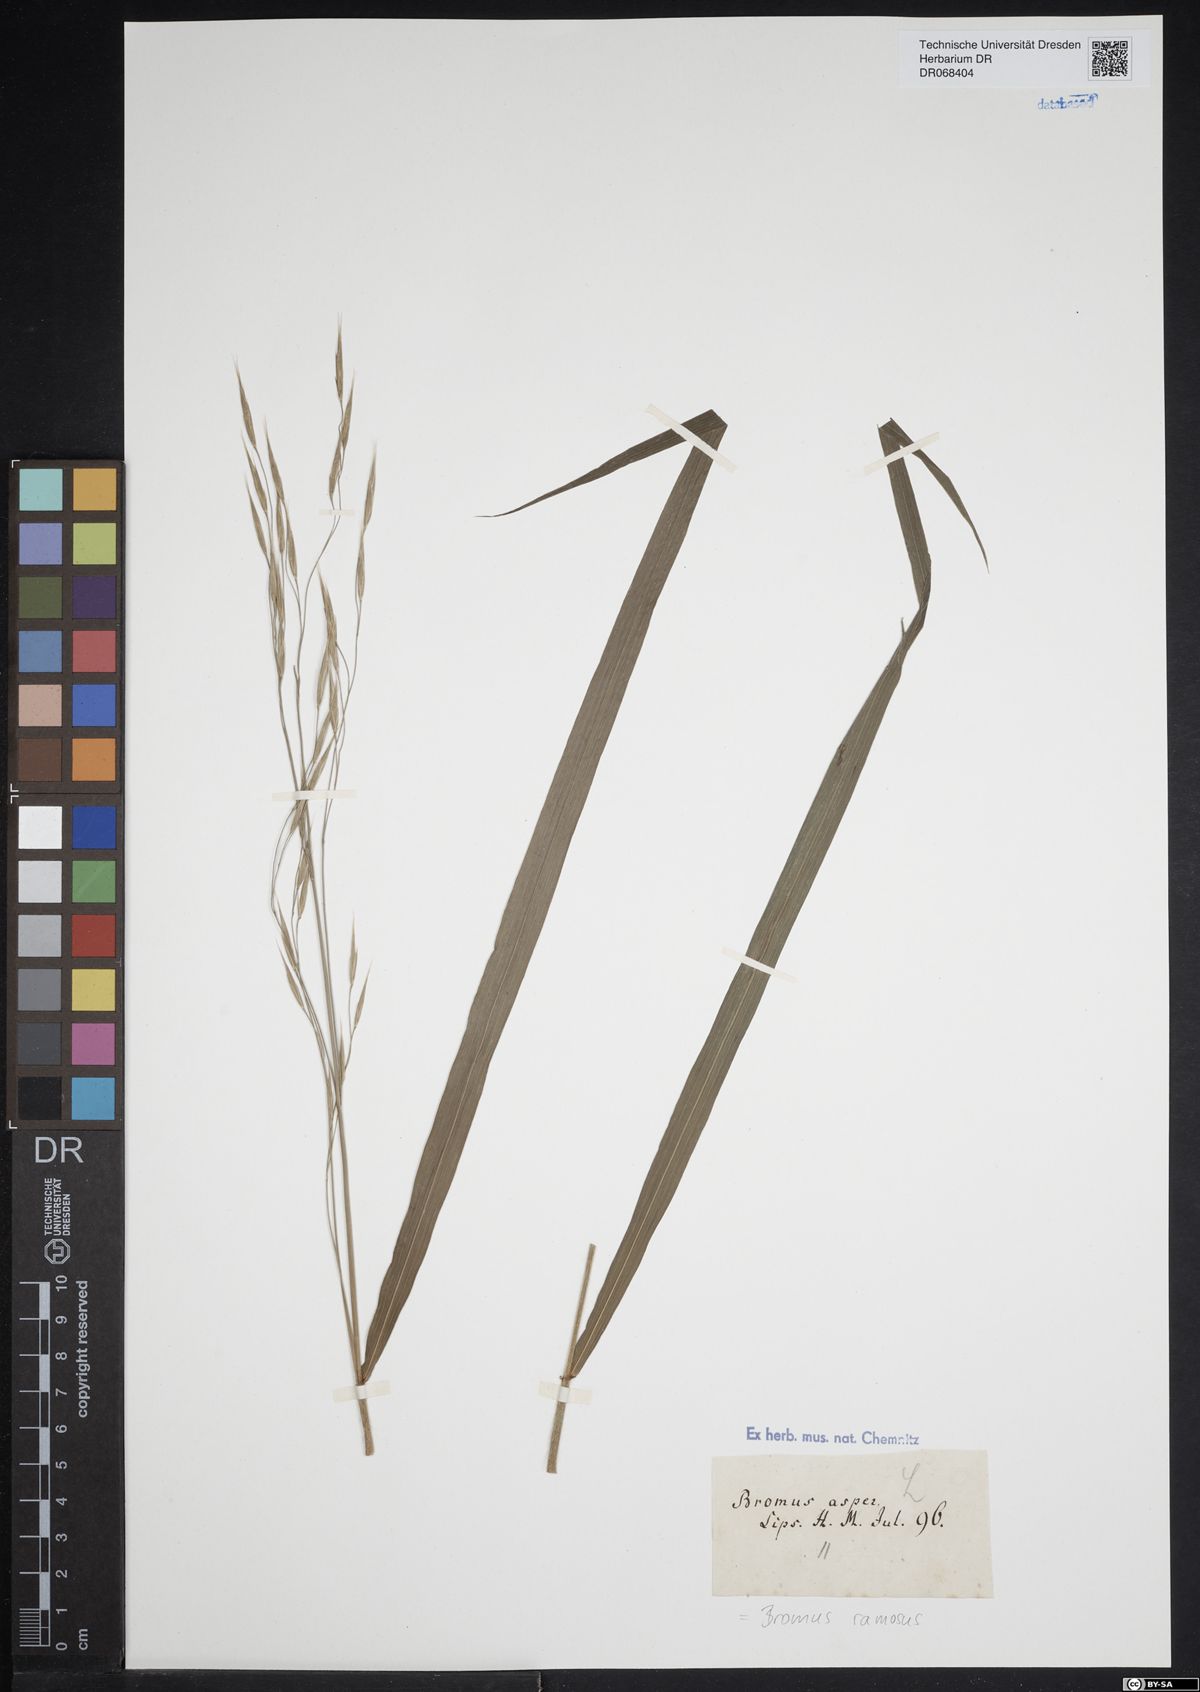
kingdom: Plantae
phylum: Tracheophyta
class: Liliopsida
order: Poales
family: Poaceae
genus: Bromus
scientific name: Bromus ramosus
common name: Hairy brome
